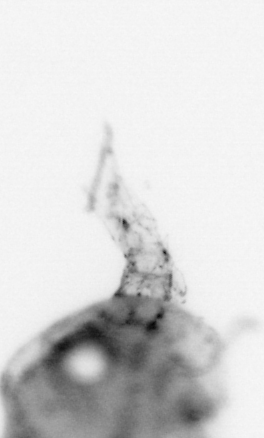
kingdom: Animalia
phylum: Arthropoda
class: Malacostraca
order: Decapoda
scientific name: Decapoda
